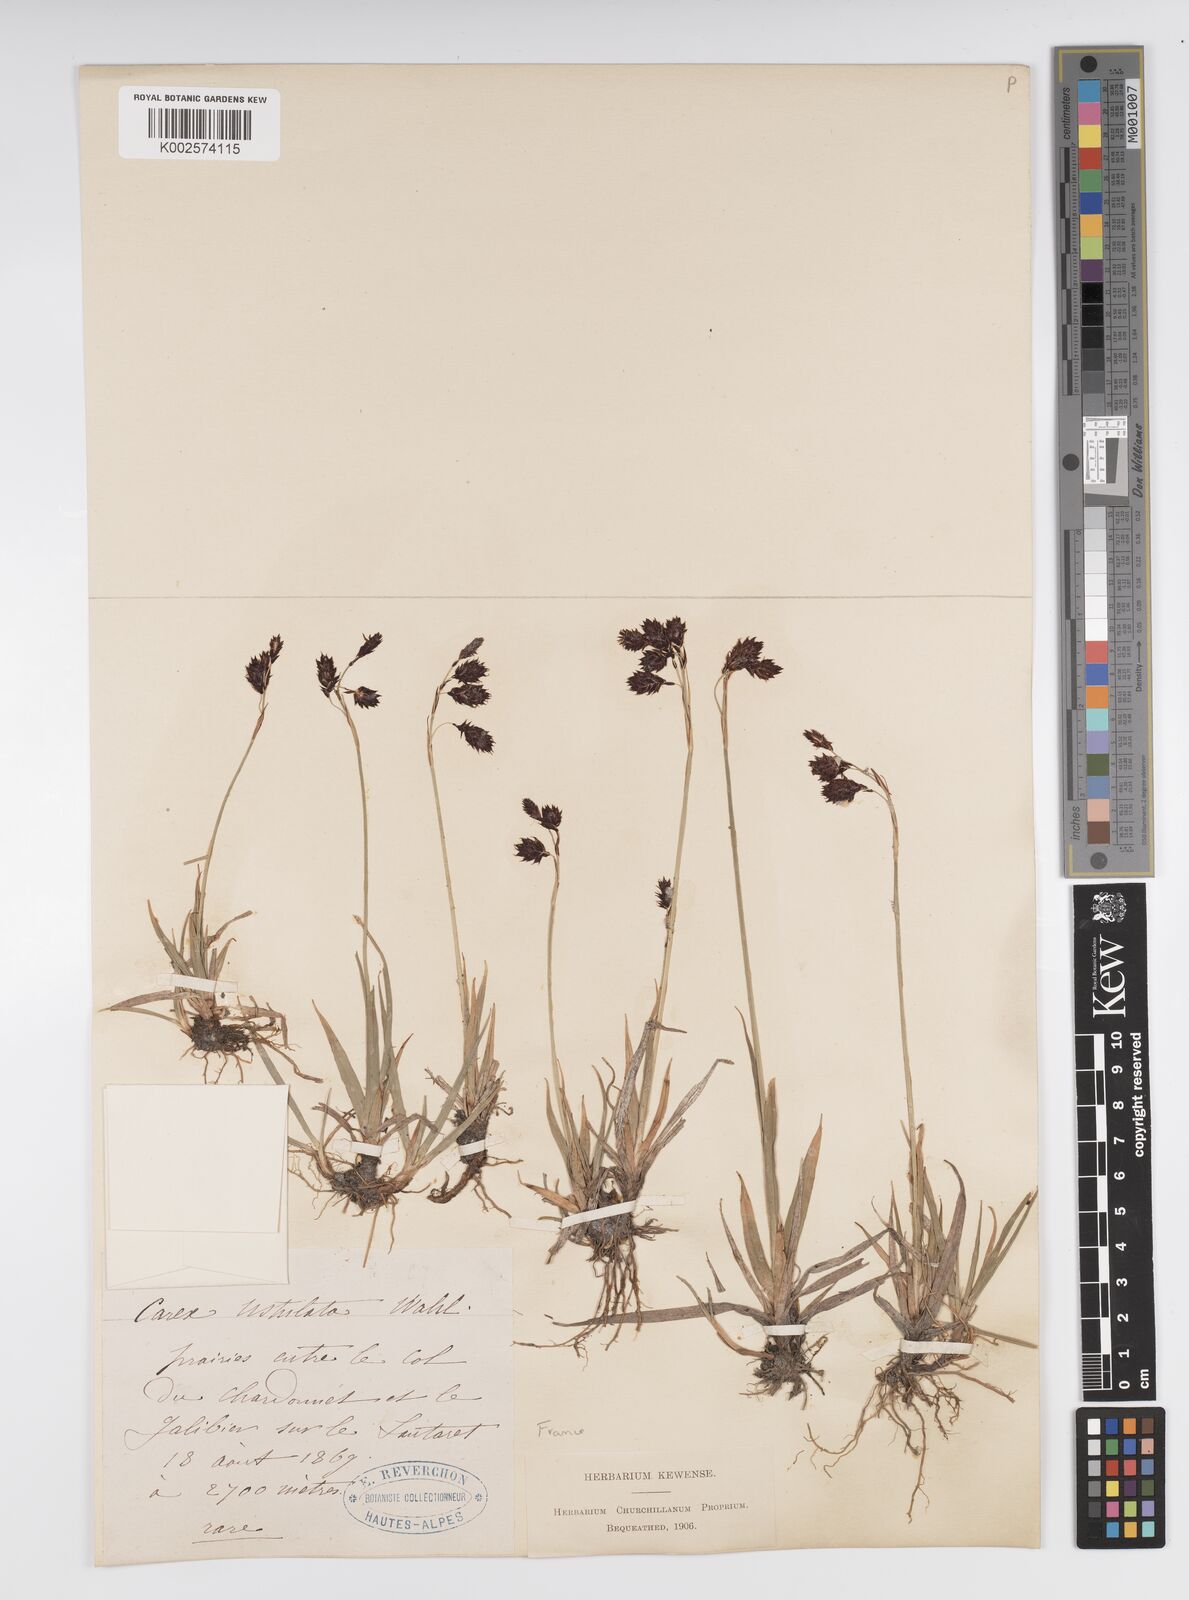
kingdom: Plantae
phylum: Tracheophyta
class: Liliopsida
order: Poales
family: Cyperaceae
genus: Carex
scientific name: Carex atrofusca
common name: Scorched alpine-sedge
